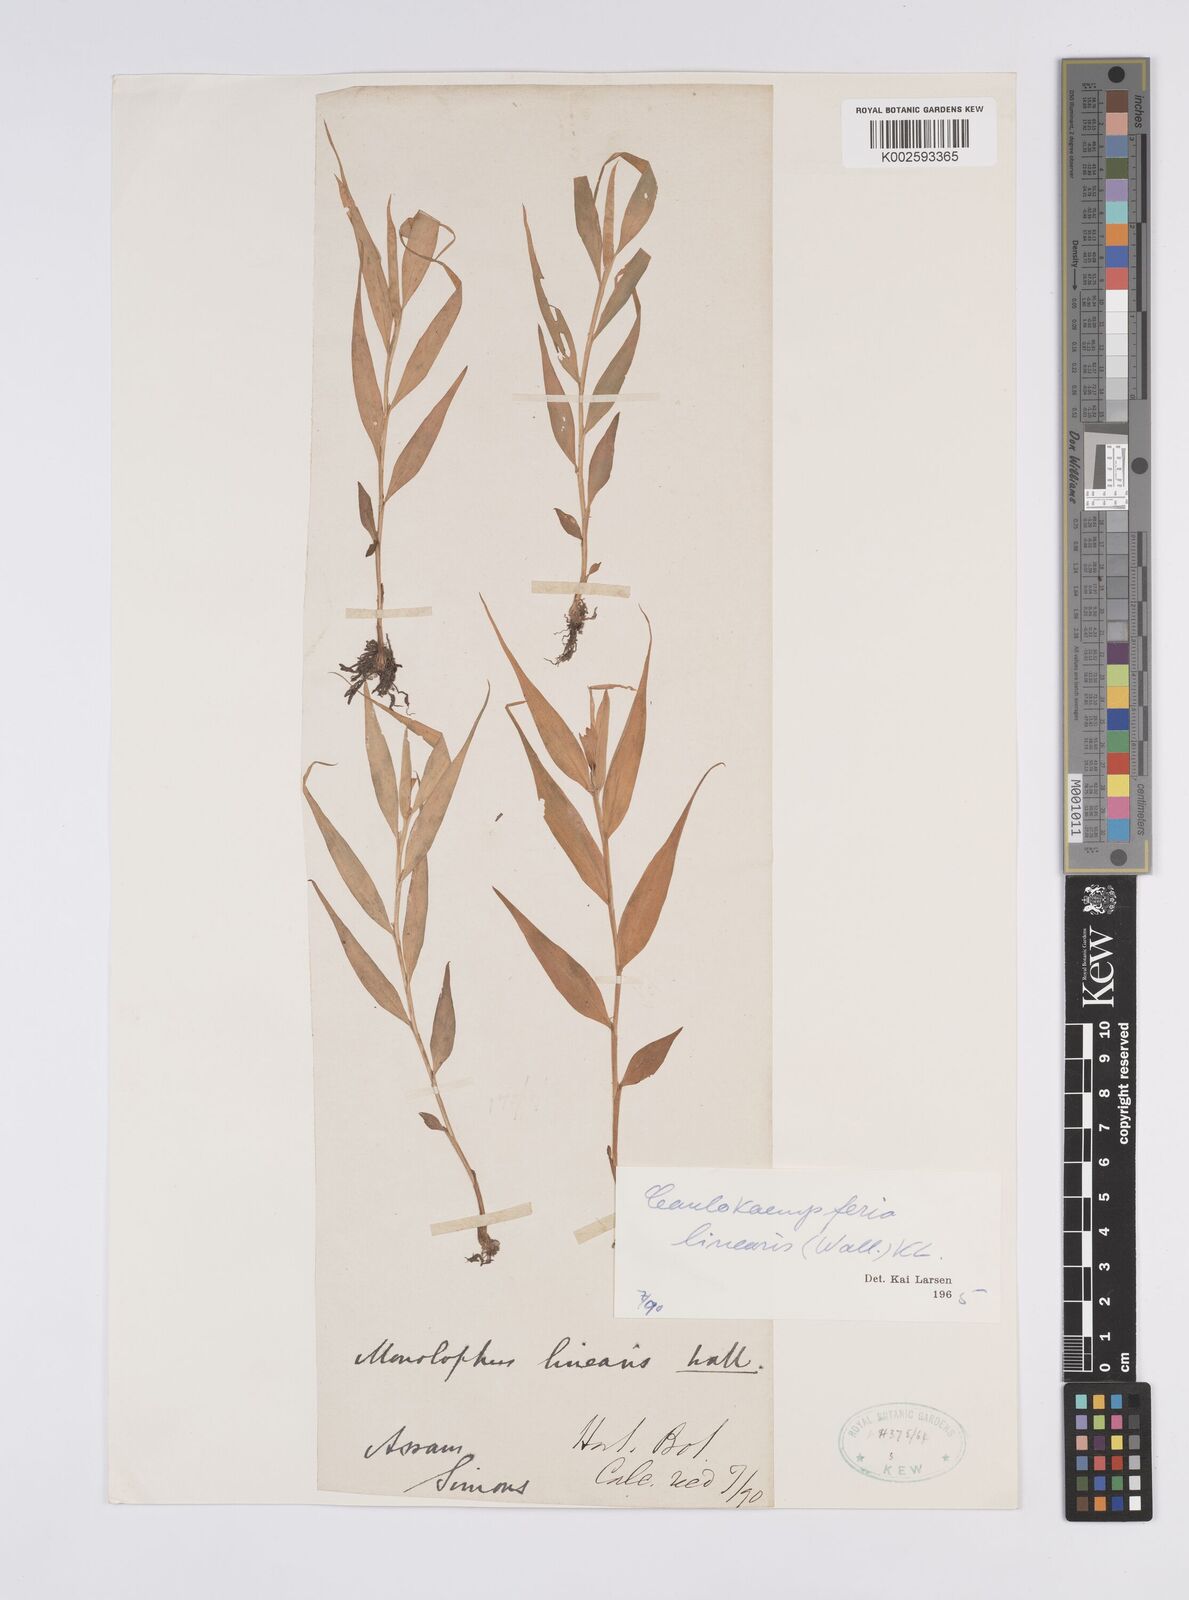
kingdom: Plantae
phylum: Tracheophyta
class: Liliopsida
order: Zingiberales
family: Zingiberaceae
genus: Caulokaempferia
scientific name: Caulokaempferia linearis
